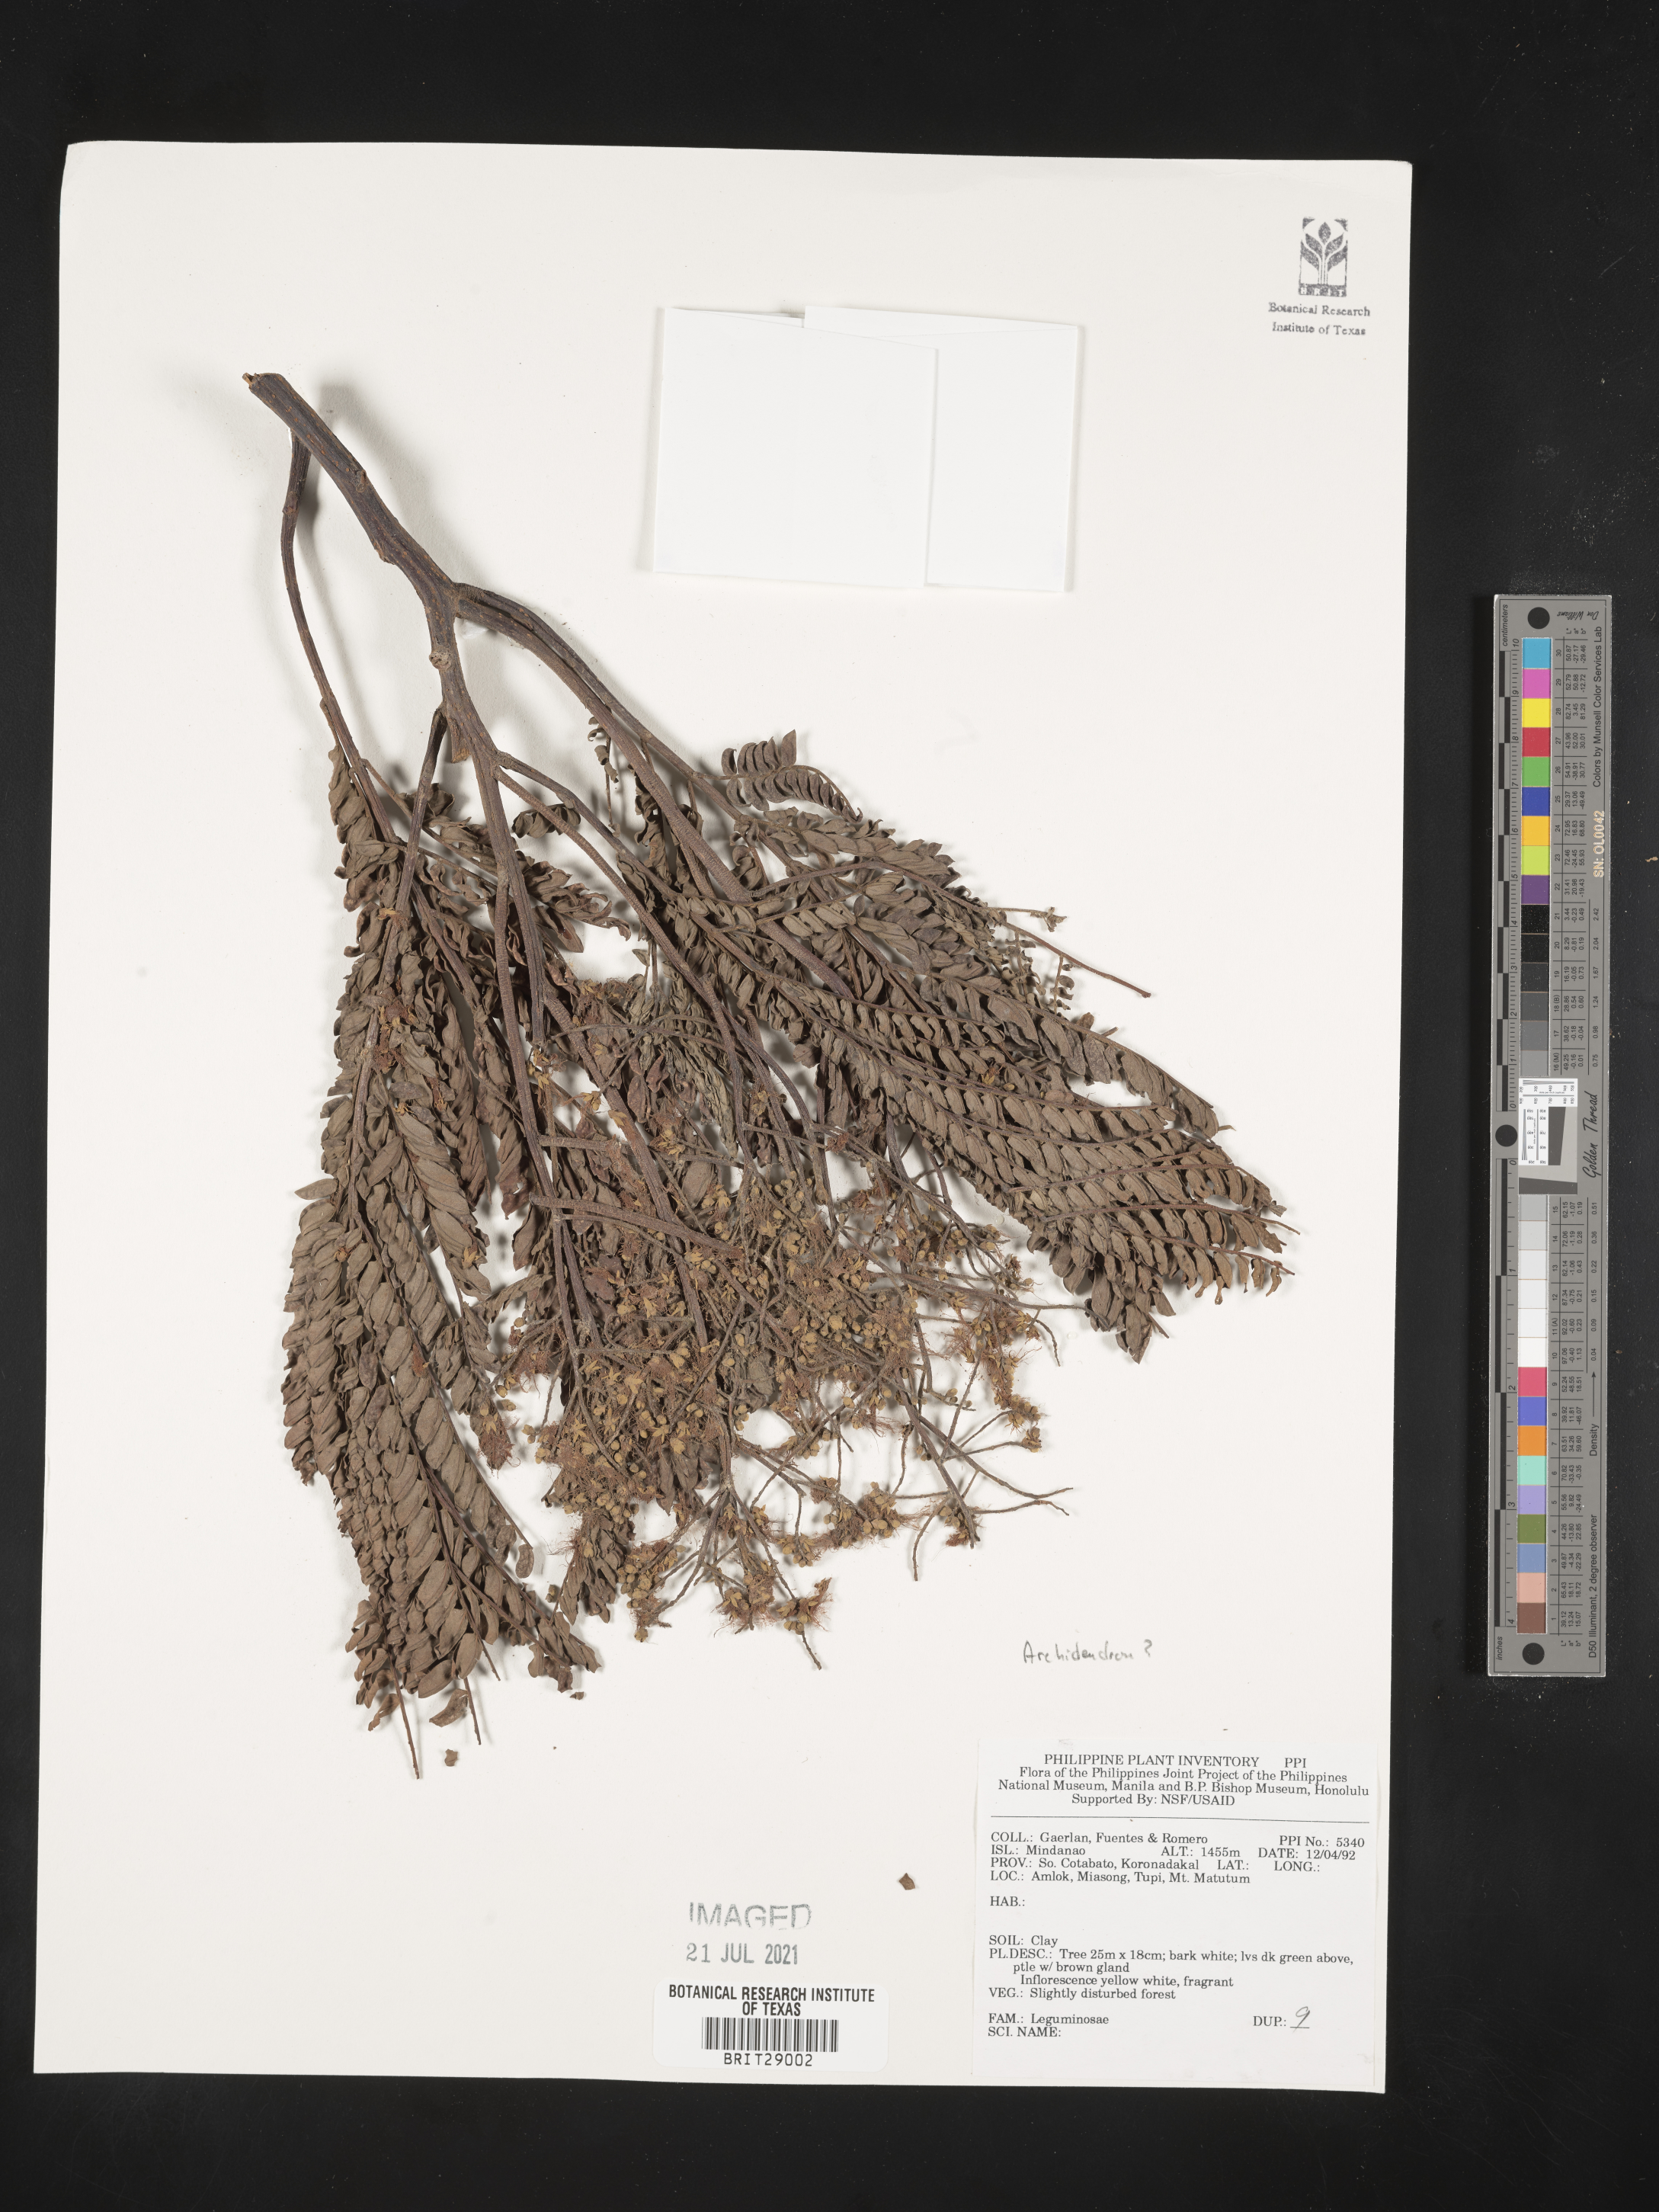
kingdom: Plantae
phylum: Tracheophyta
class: Magnoliopsida
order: Fabales
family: Fabaceae
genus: Archidendron
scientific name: Archidendron
